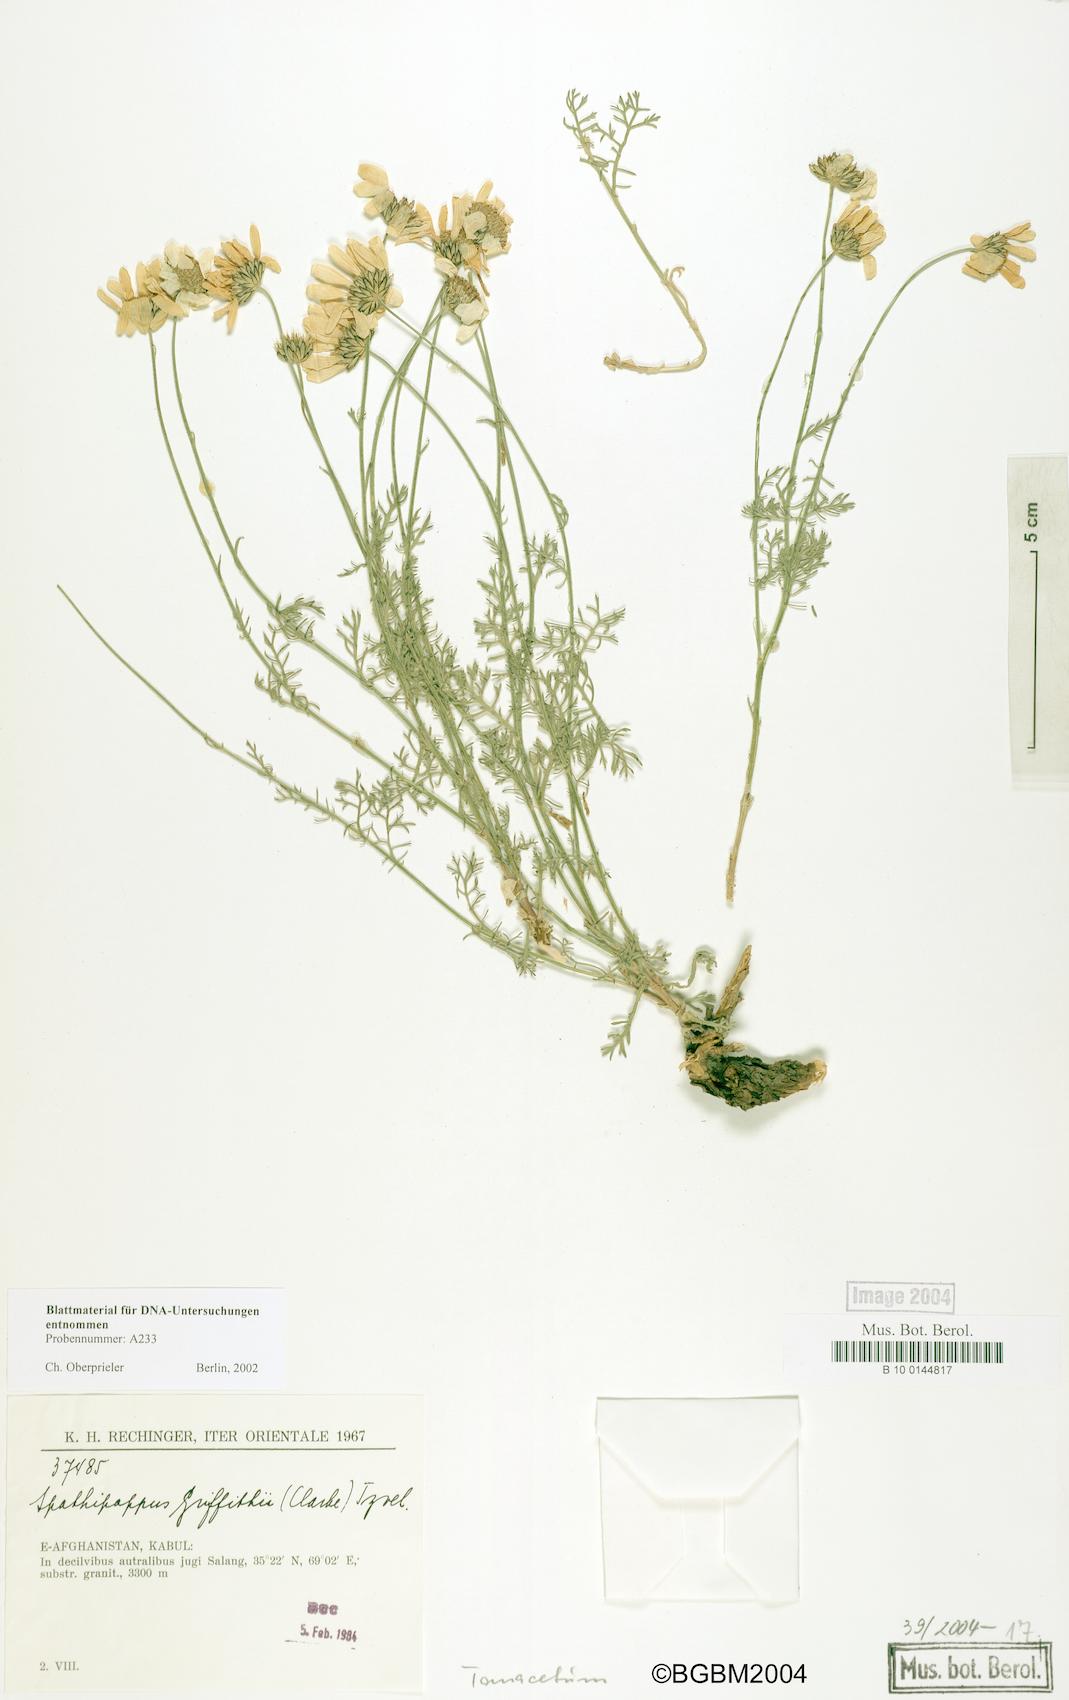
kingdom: Plantae
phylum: Tracheophyta
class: Magnoliopsida
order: Asterales
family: Asteraceae
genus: Tanacetum
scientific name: Tanacetum griffithii
